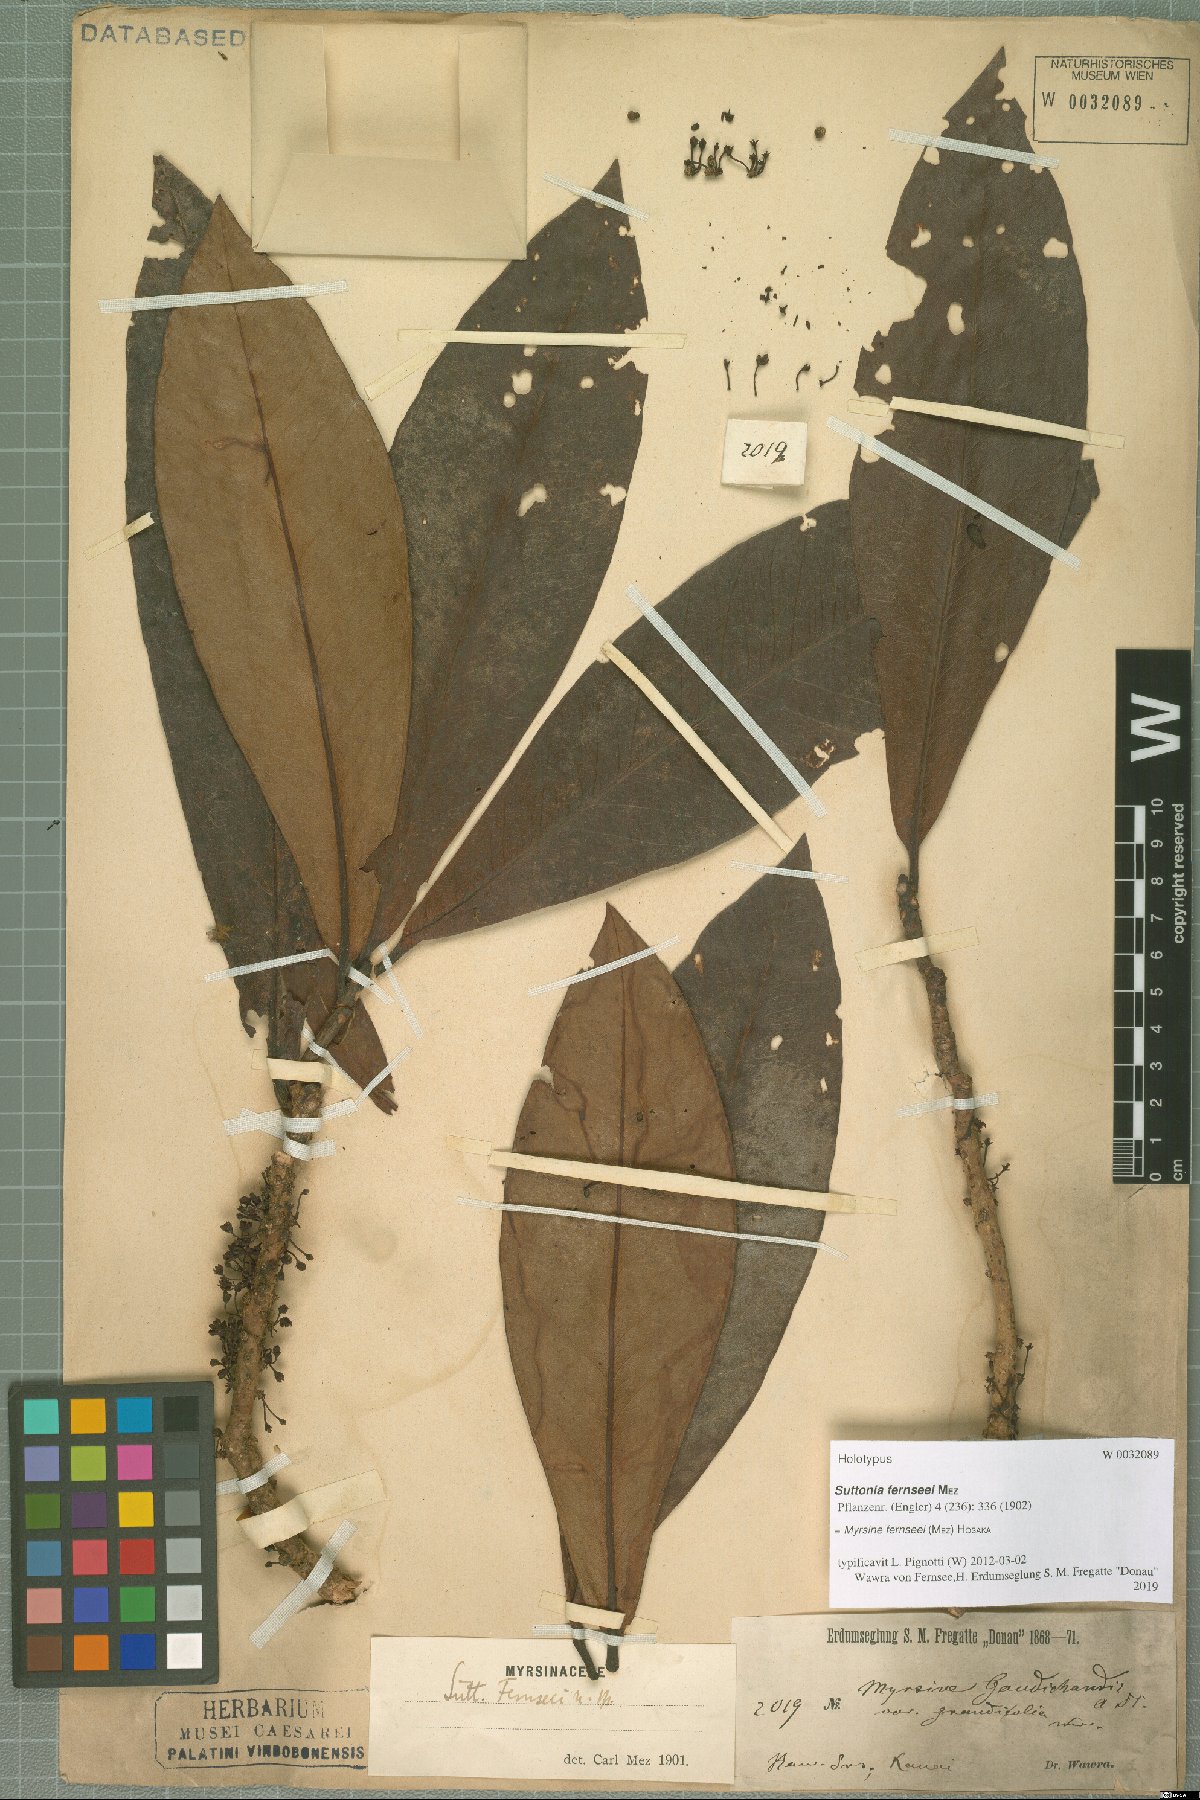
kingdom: Plantae
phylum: Tracheophyta
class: Magnoliopsida
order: Ericales
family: Primulaceae
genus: Myrsine
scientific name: Myrsine fernseei
